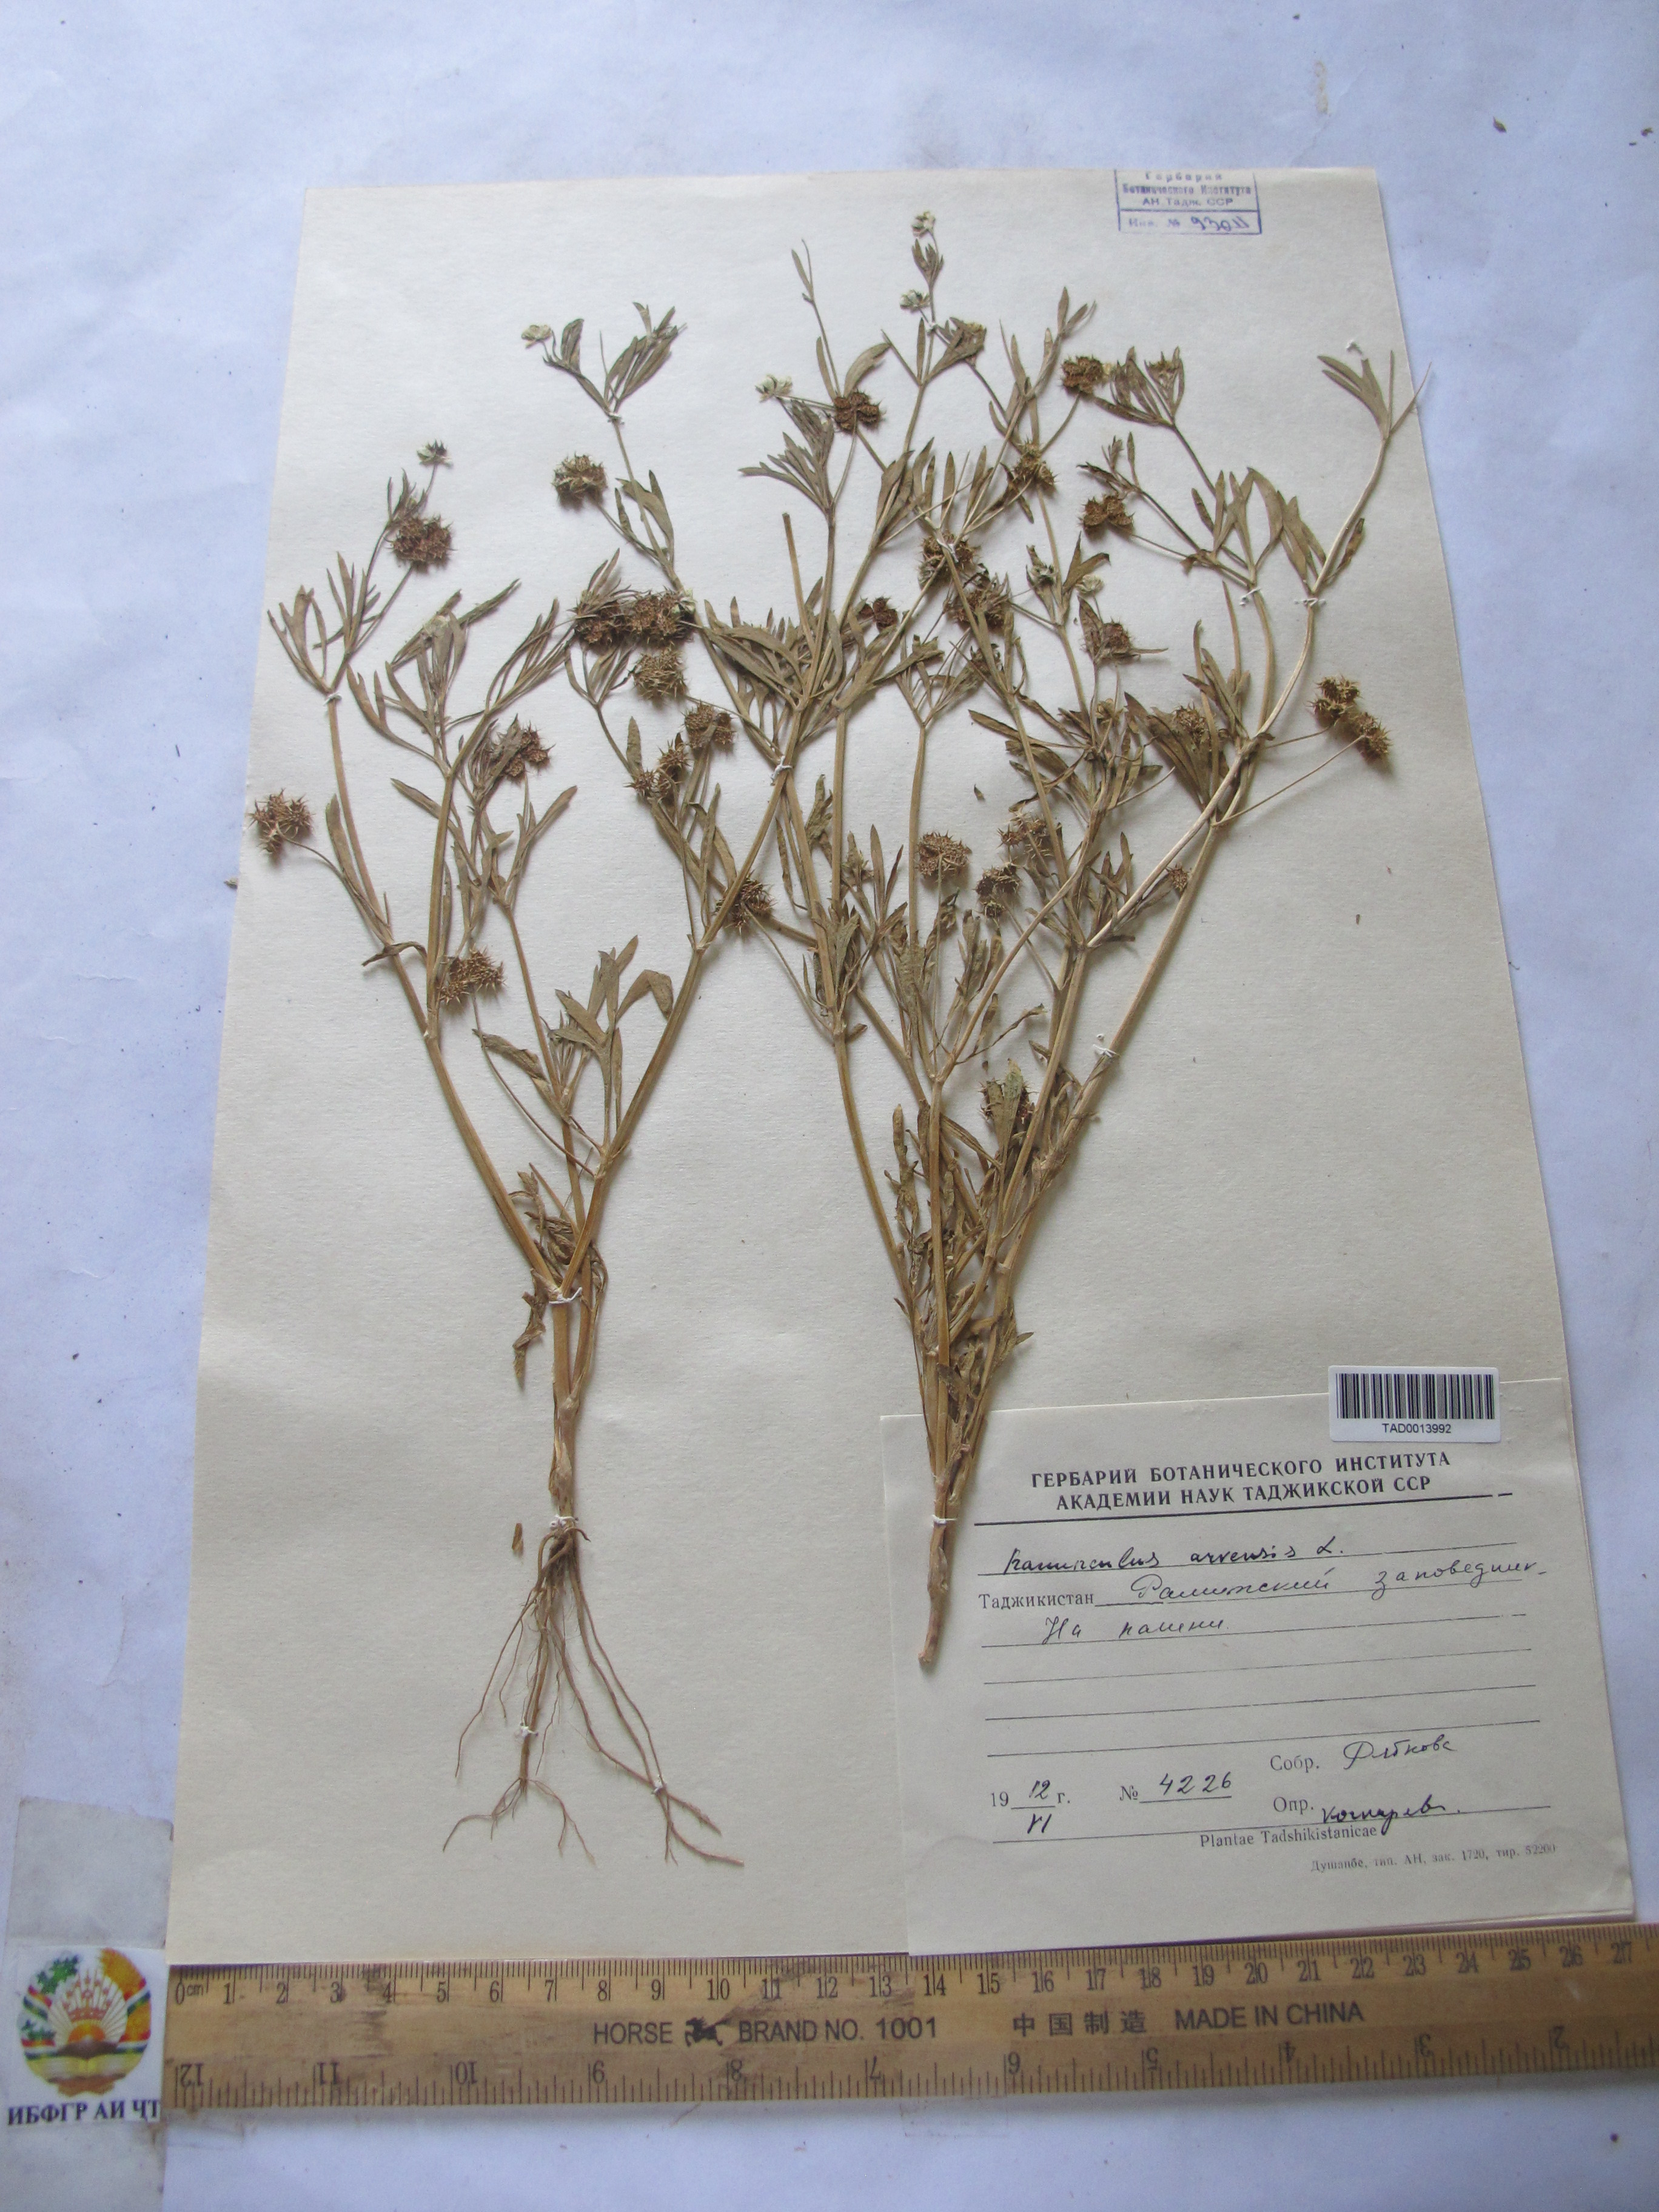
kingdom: Plantae
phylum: Tracheophyta
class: Magnoliopsida
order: Ranunculales
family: Ranunculaceae
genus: Ranunculus
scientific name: Ranunculus arvensis
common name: Corn buttercup
